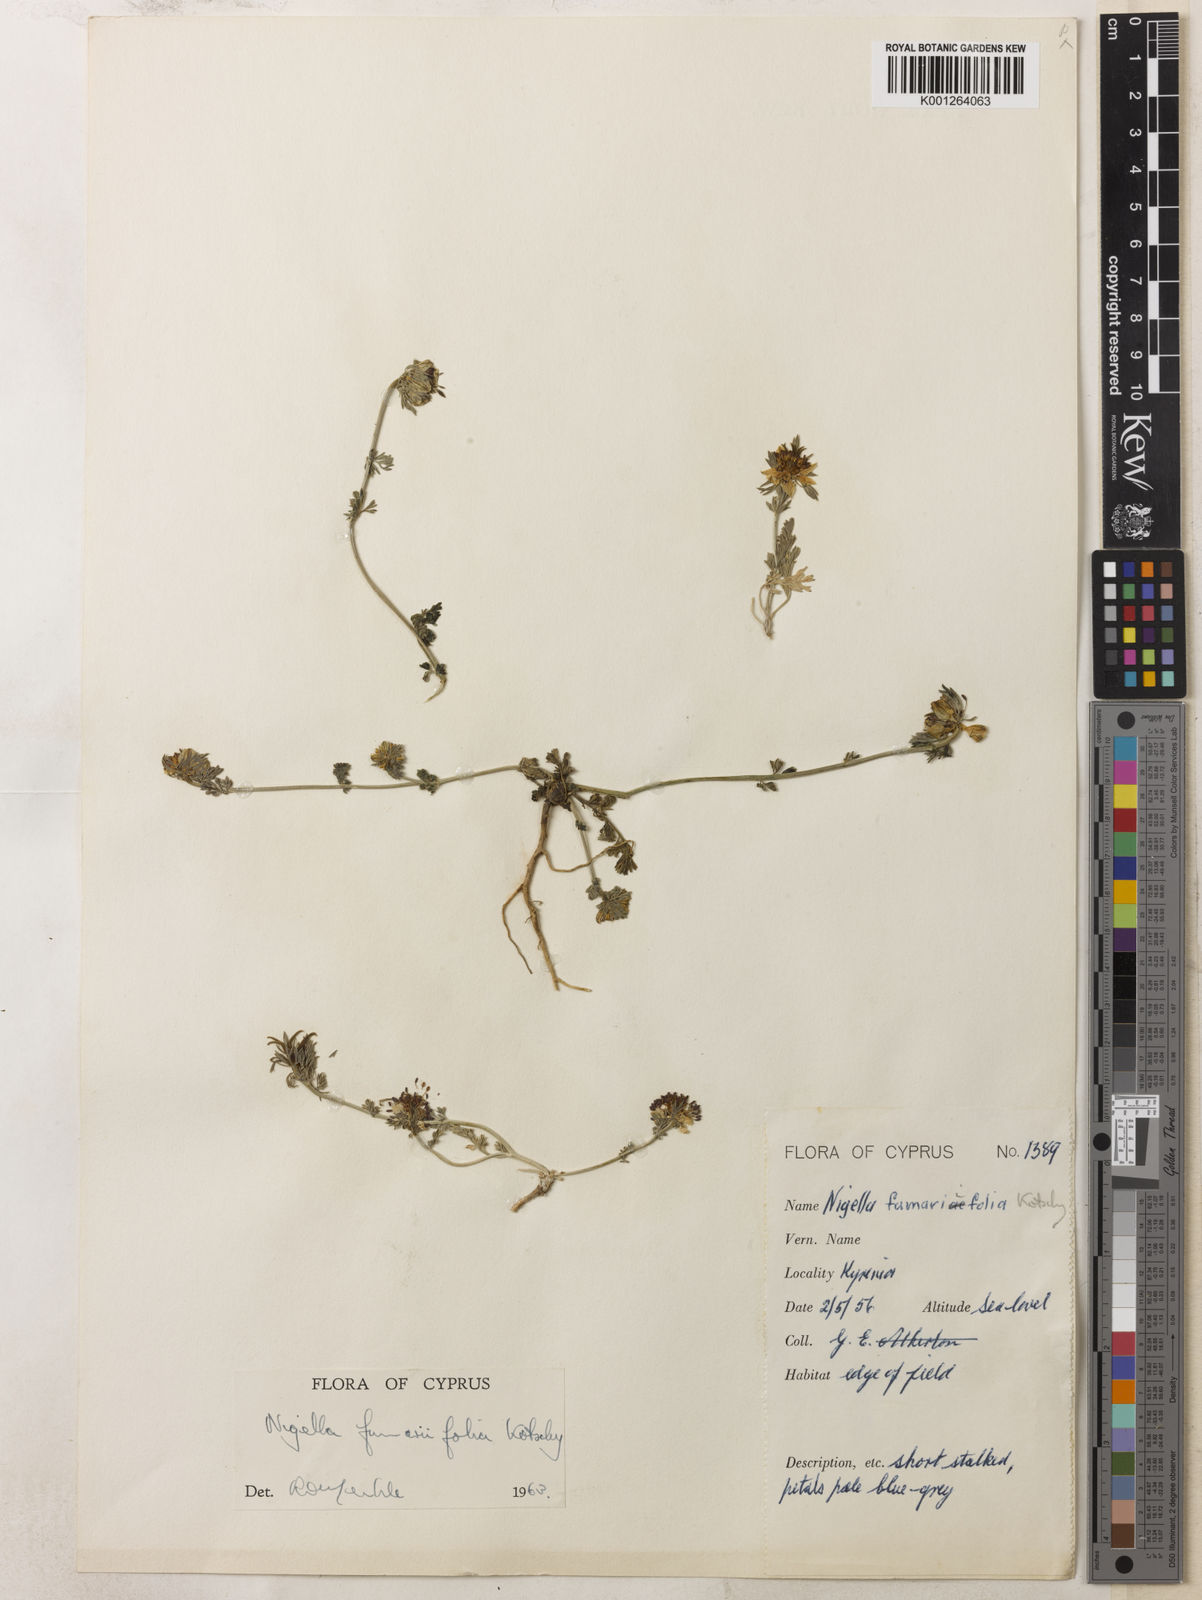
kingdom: Plantae
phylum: Tracheophyta
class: Magnoliopsida
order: Ranunculales
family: Ranunculaceae
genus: Nigella
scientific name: Nigella
